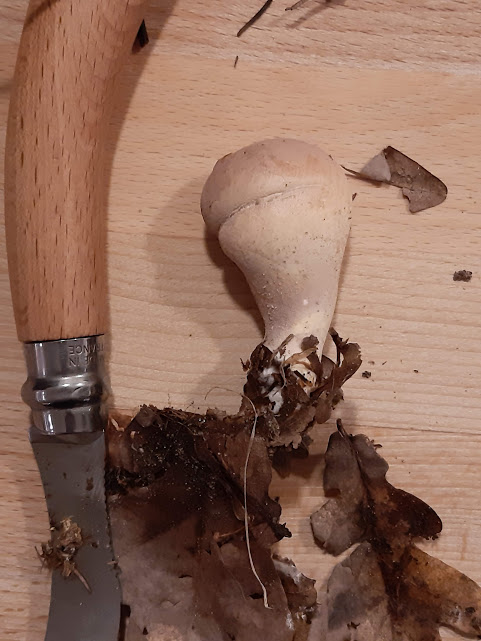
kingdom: Fungi
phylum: Basidiomycota
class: Agaricomycetes
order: Agaricales
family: Lycoperdaceae
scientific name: Lycoperdaceae
